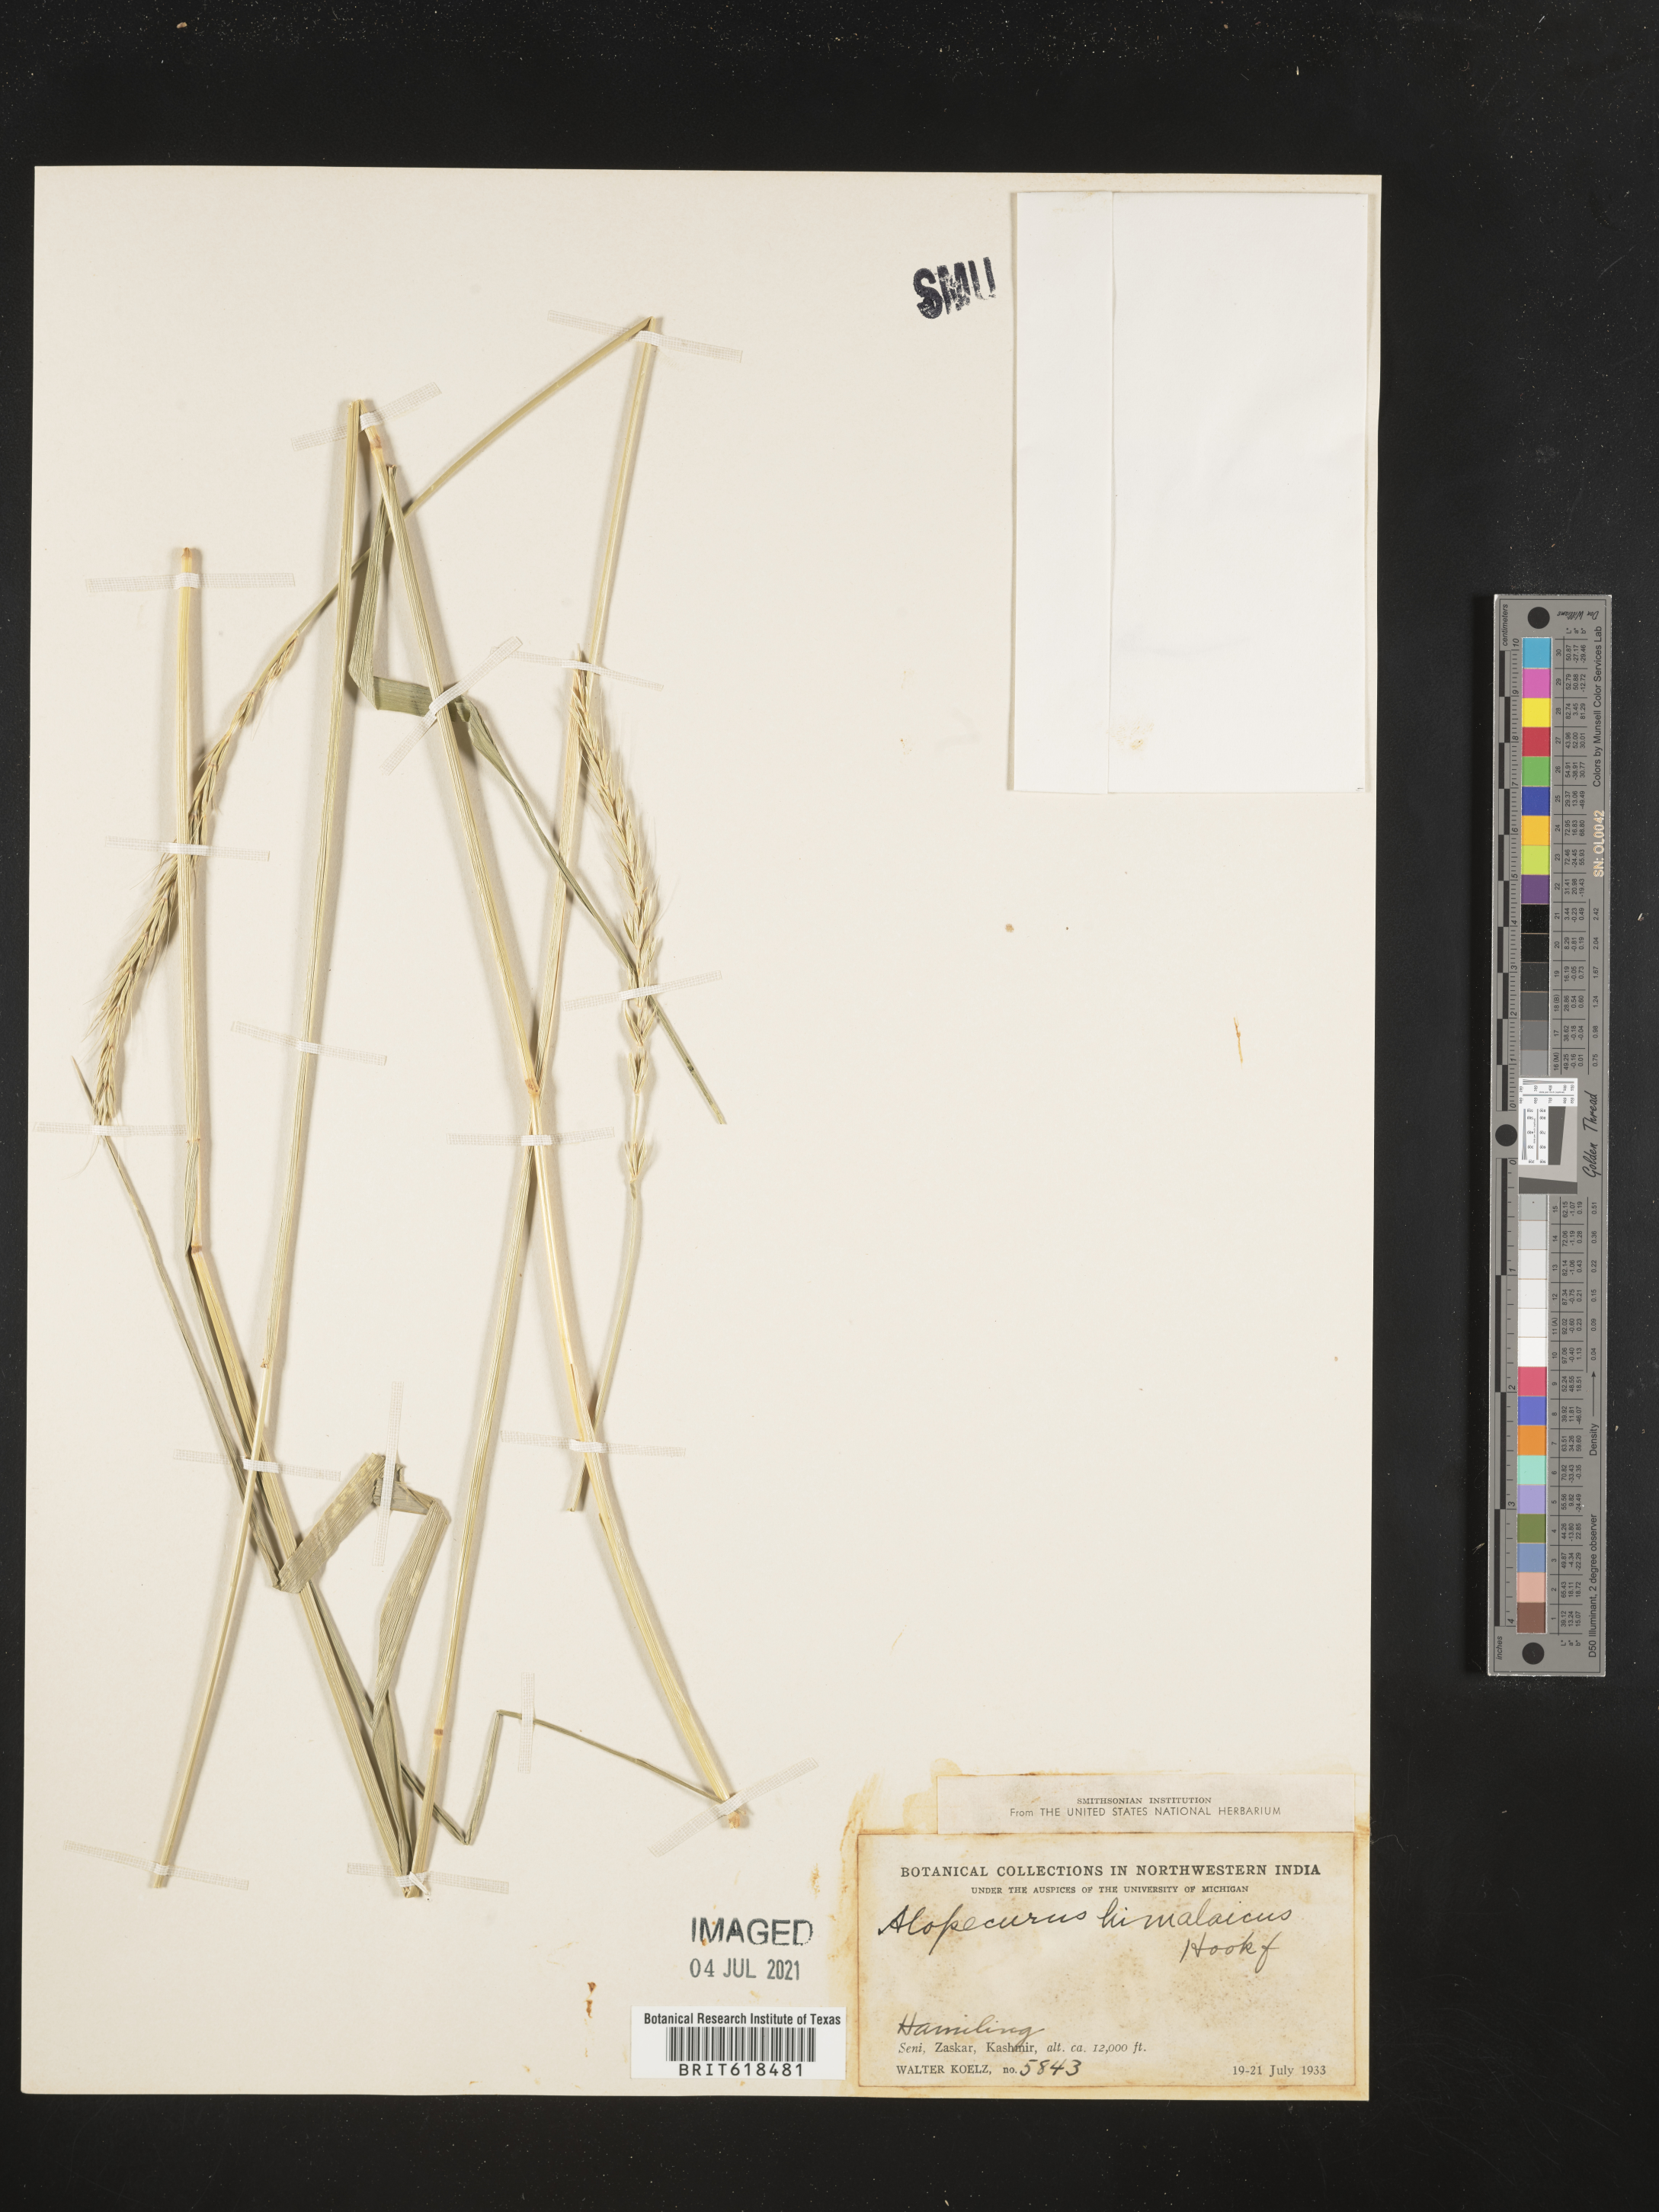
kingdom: Plantae
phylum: Tracheophyta
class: Liliopsida
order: Poales
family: Poaceae
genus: Alopecurus
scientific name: Alopecurus himalaicus
